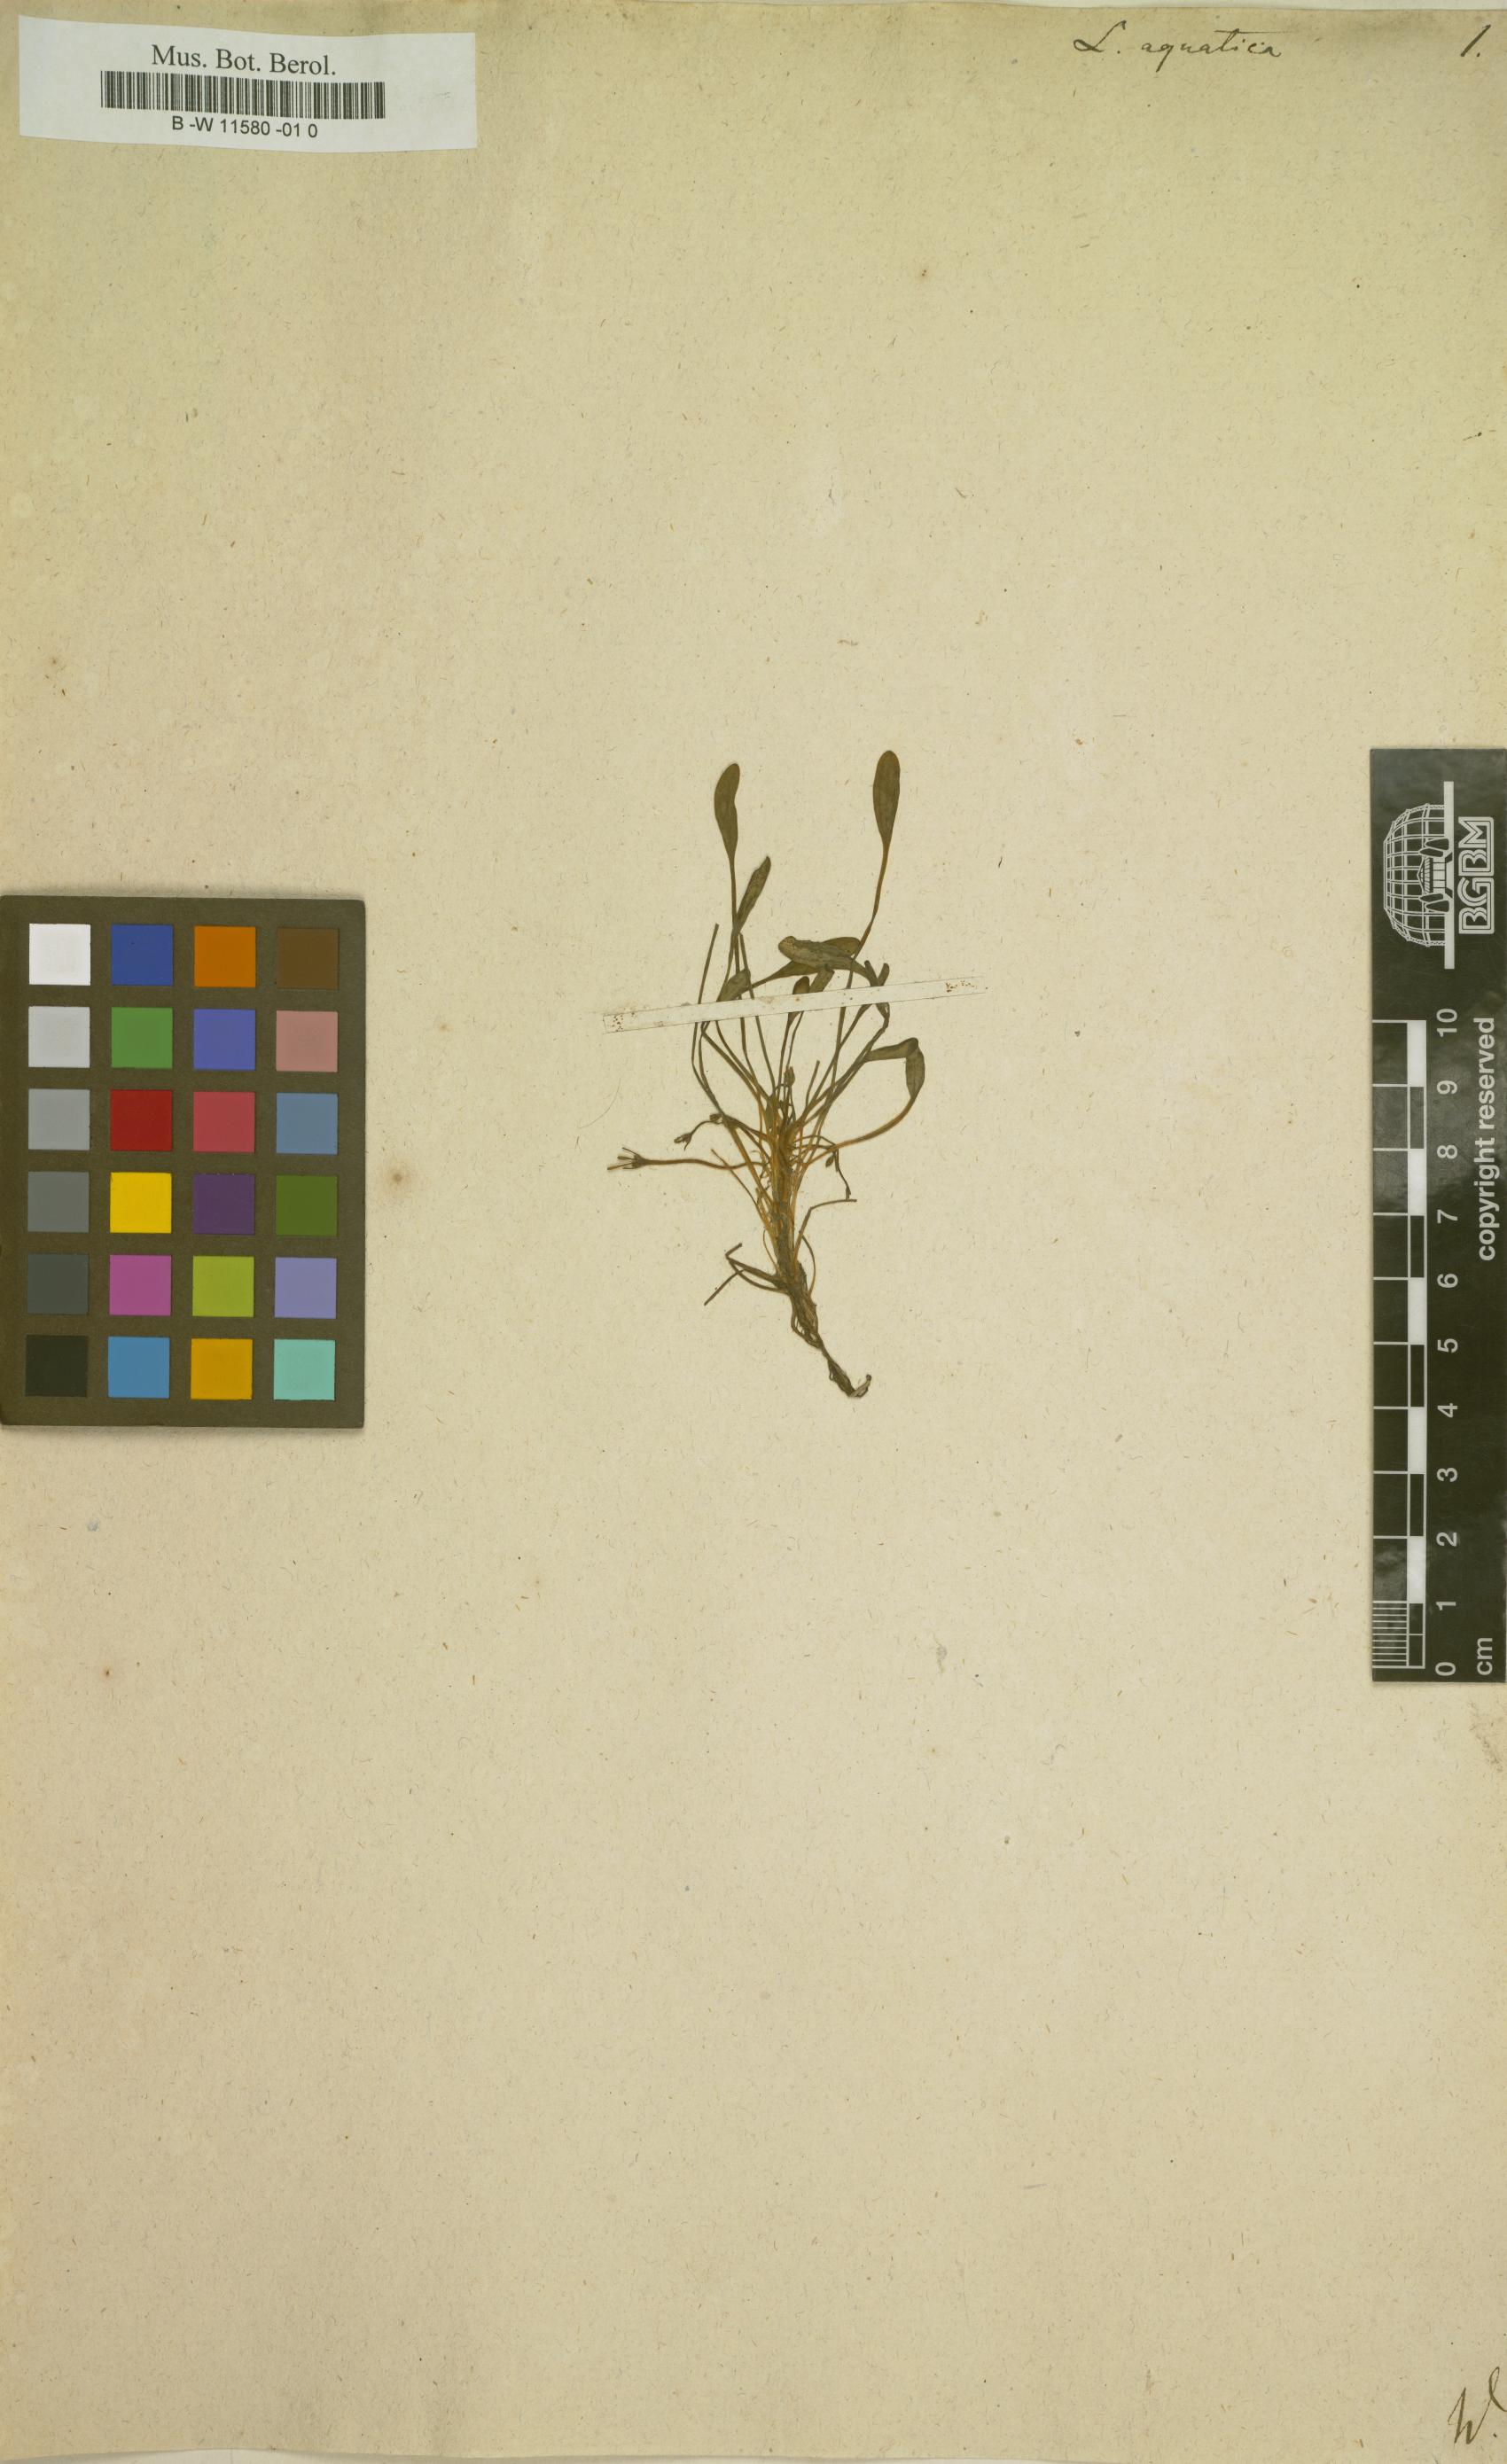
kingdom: Plantae
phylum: Tracheophyta
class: Magnoliopsida
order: Lamiales
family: Scrophulariaceae
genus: Limosella
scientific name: Limosella aquatica
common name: Mudwort
